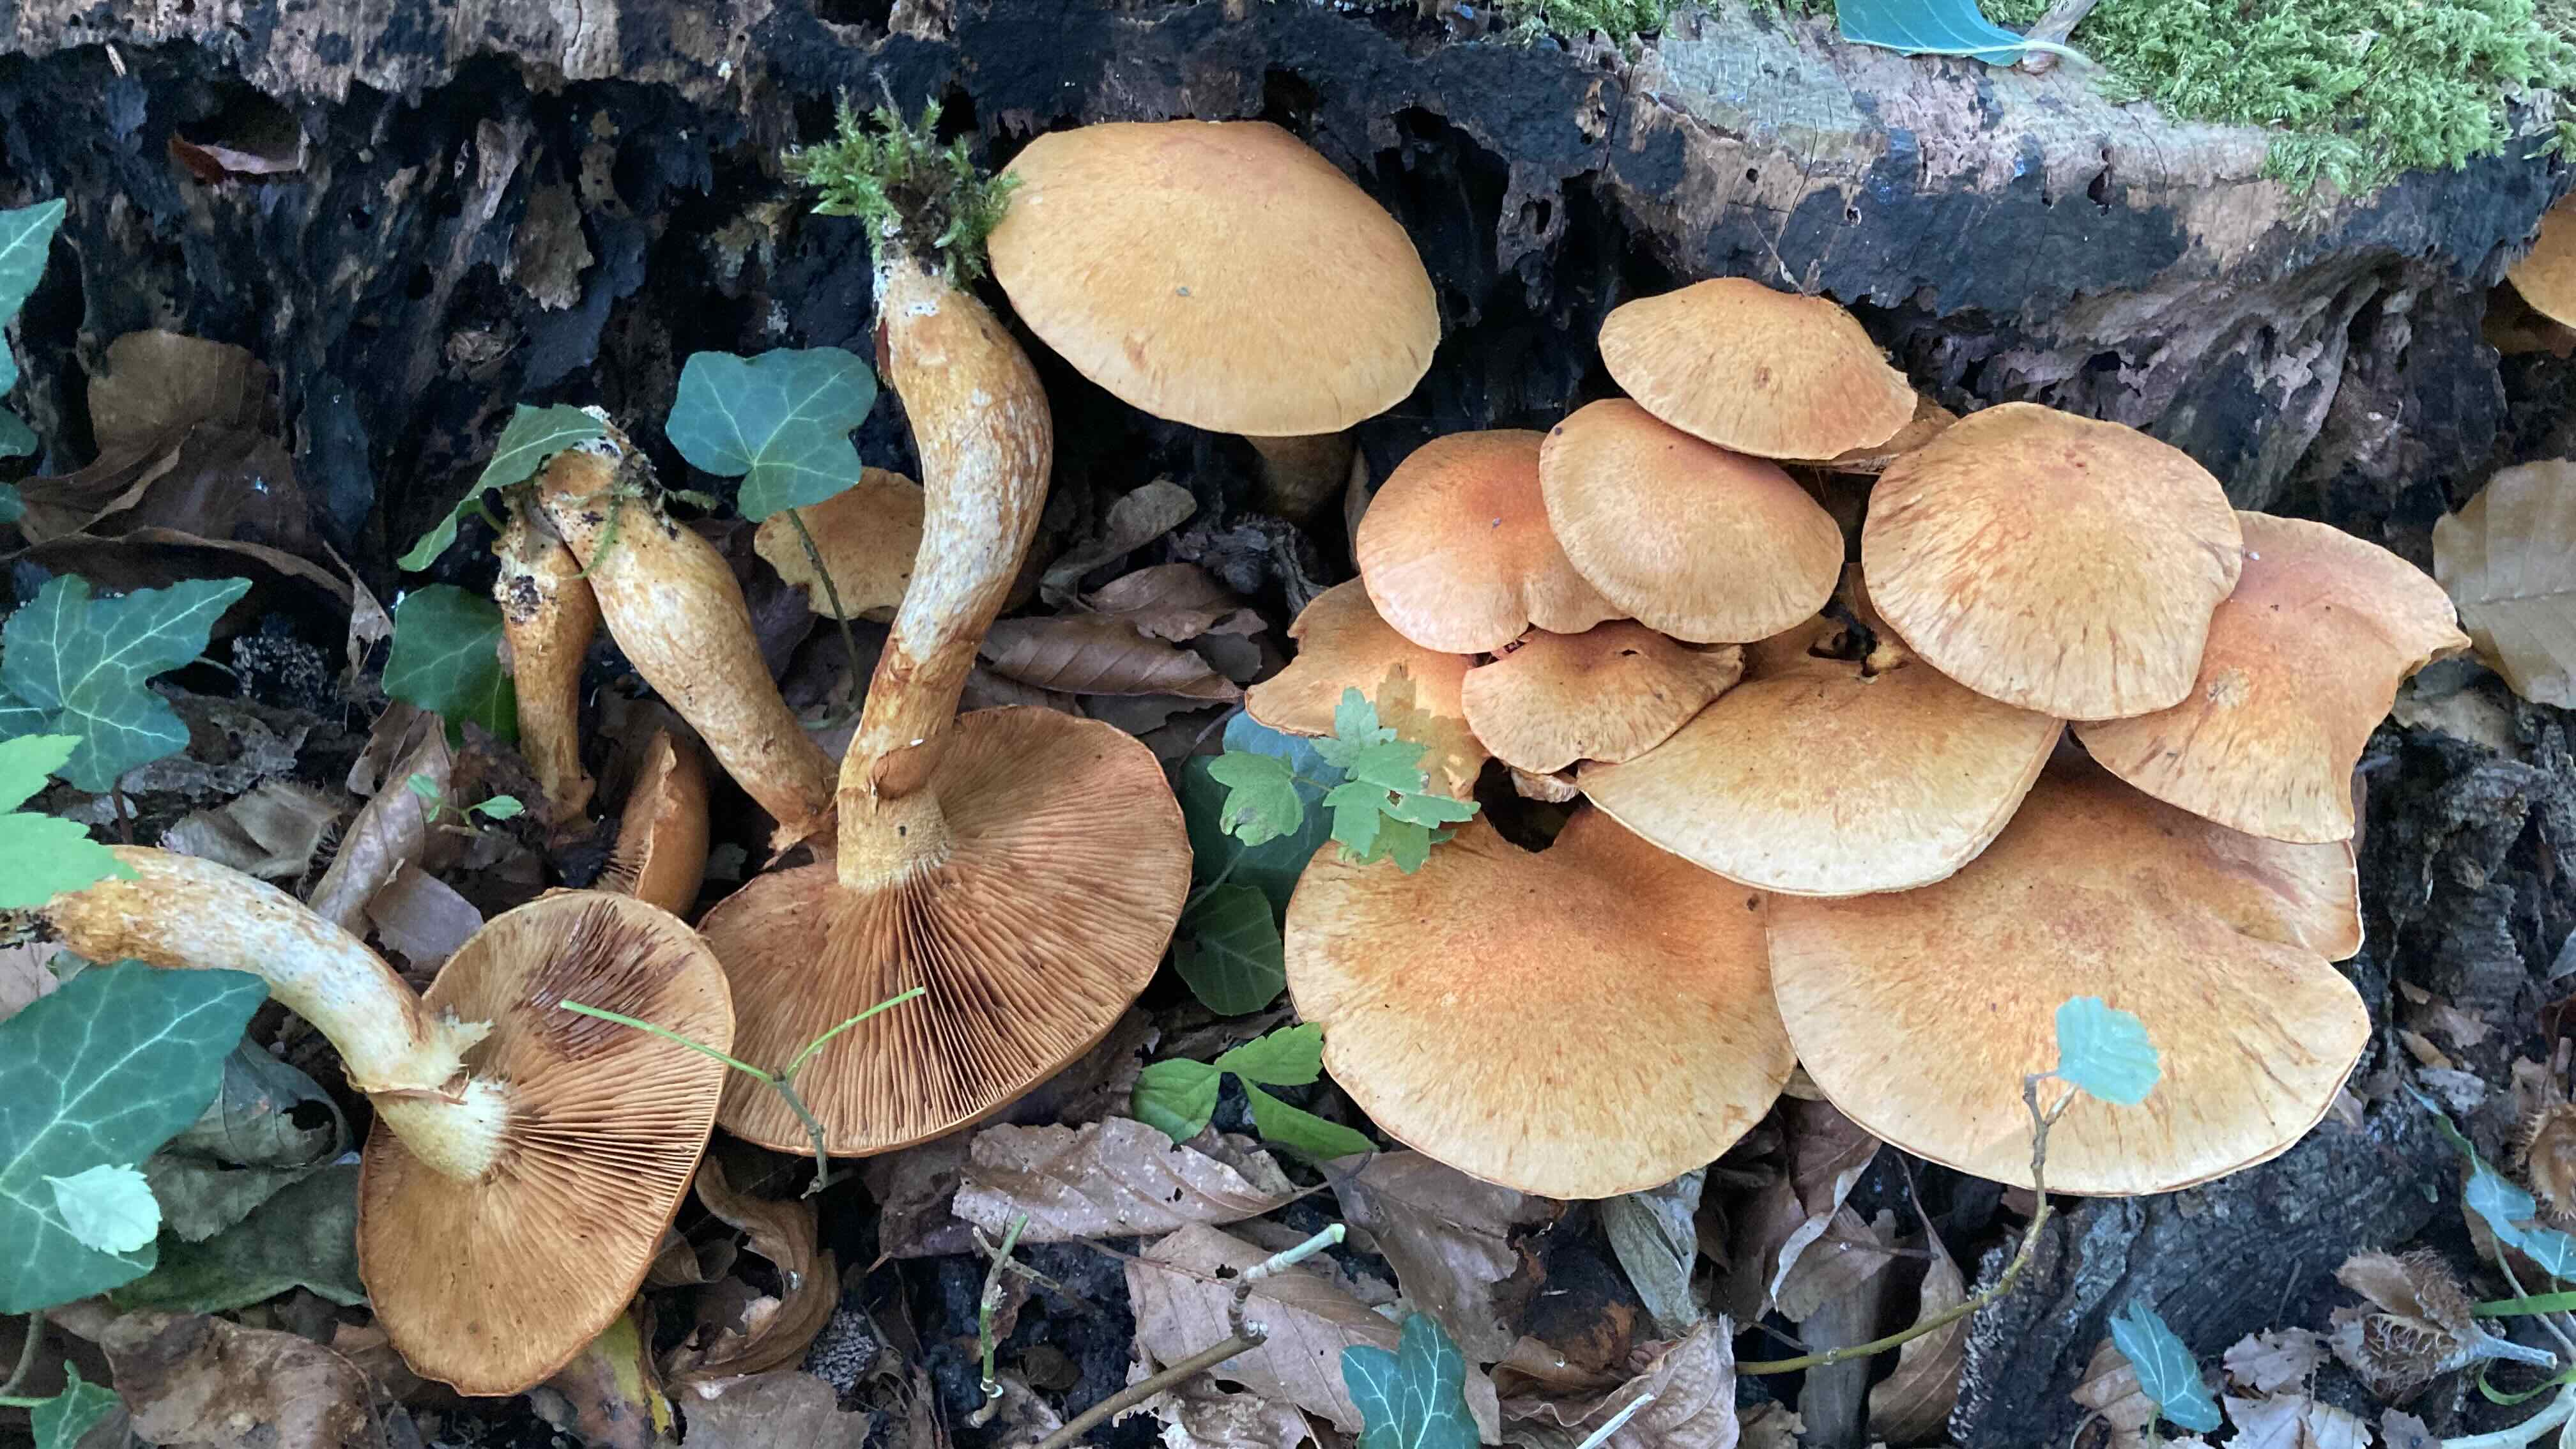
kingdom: Fungi
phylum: Basidiomycota
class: Agaricomycetes
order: Agaricales
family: Hymenogastraceae
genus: Gymnopilus
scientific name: Gymnopilus spectabilis
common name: fibret flammehat
